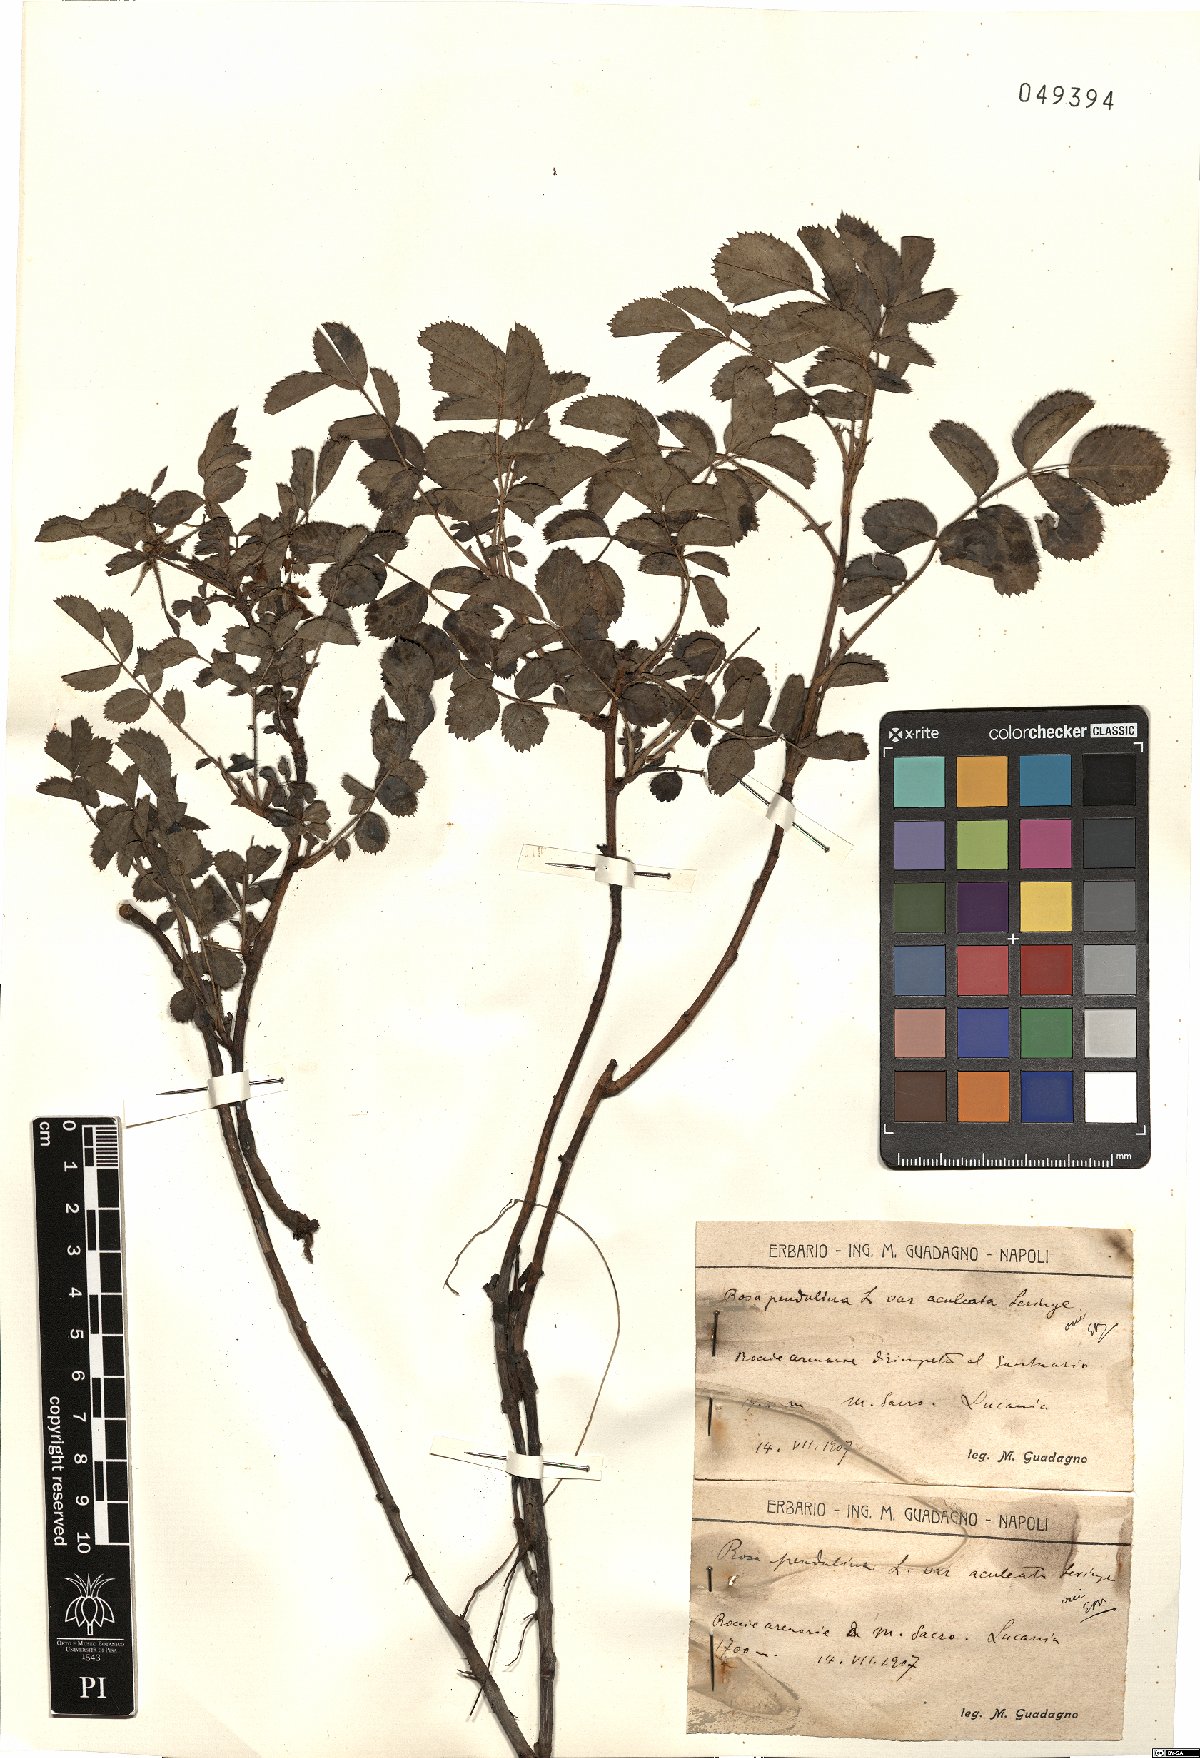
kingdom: Plantae
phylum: Tracheophyta
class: Magnoliopsida
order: Rosales
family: Rosaceae
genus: Rosa
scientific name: Rosa pendulina
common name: Alpine rose
